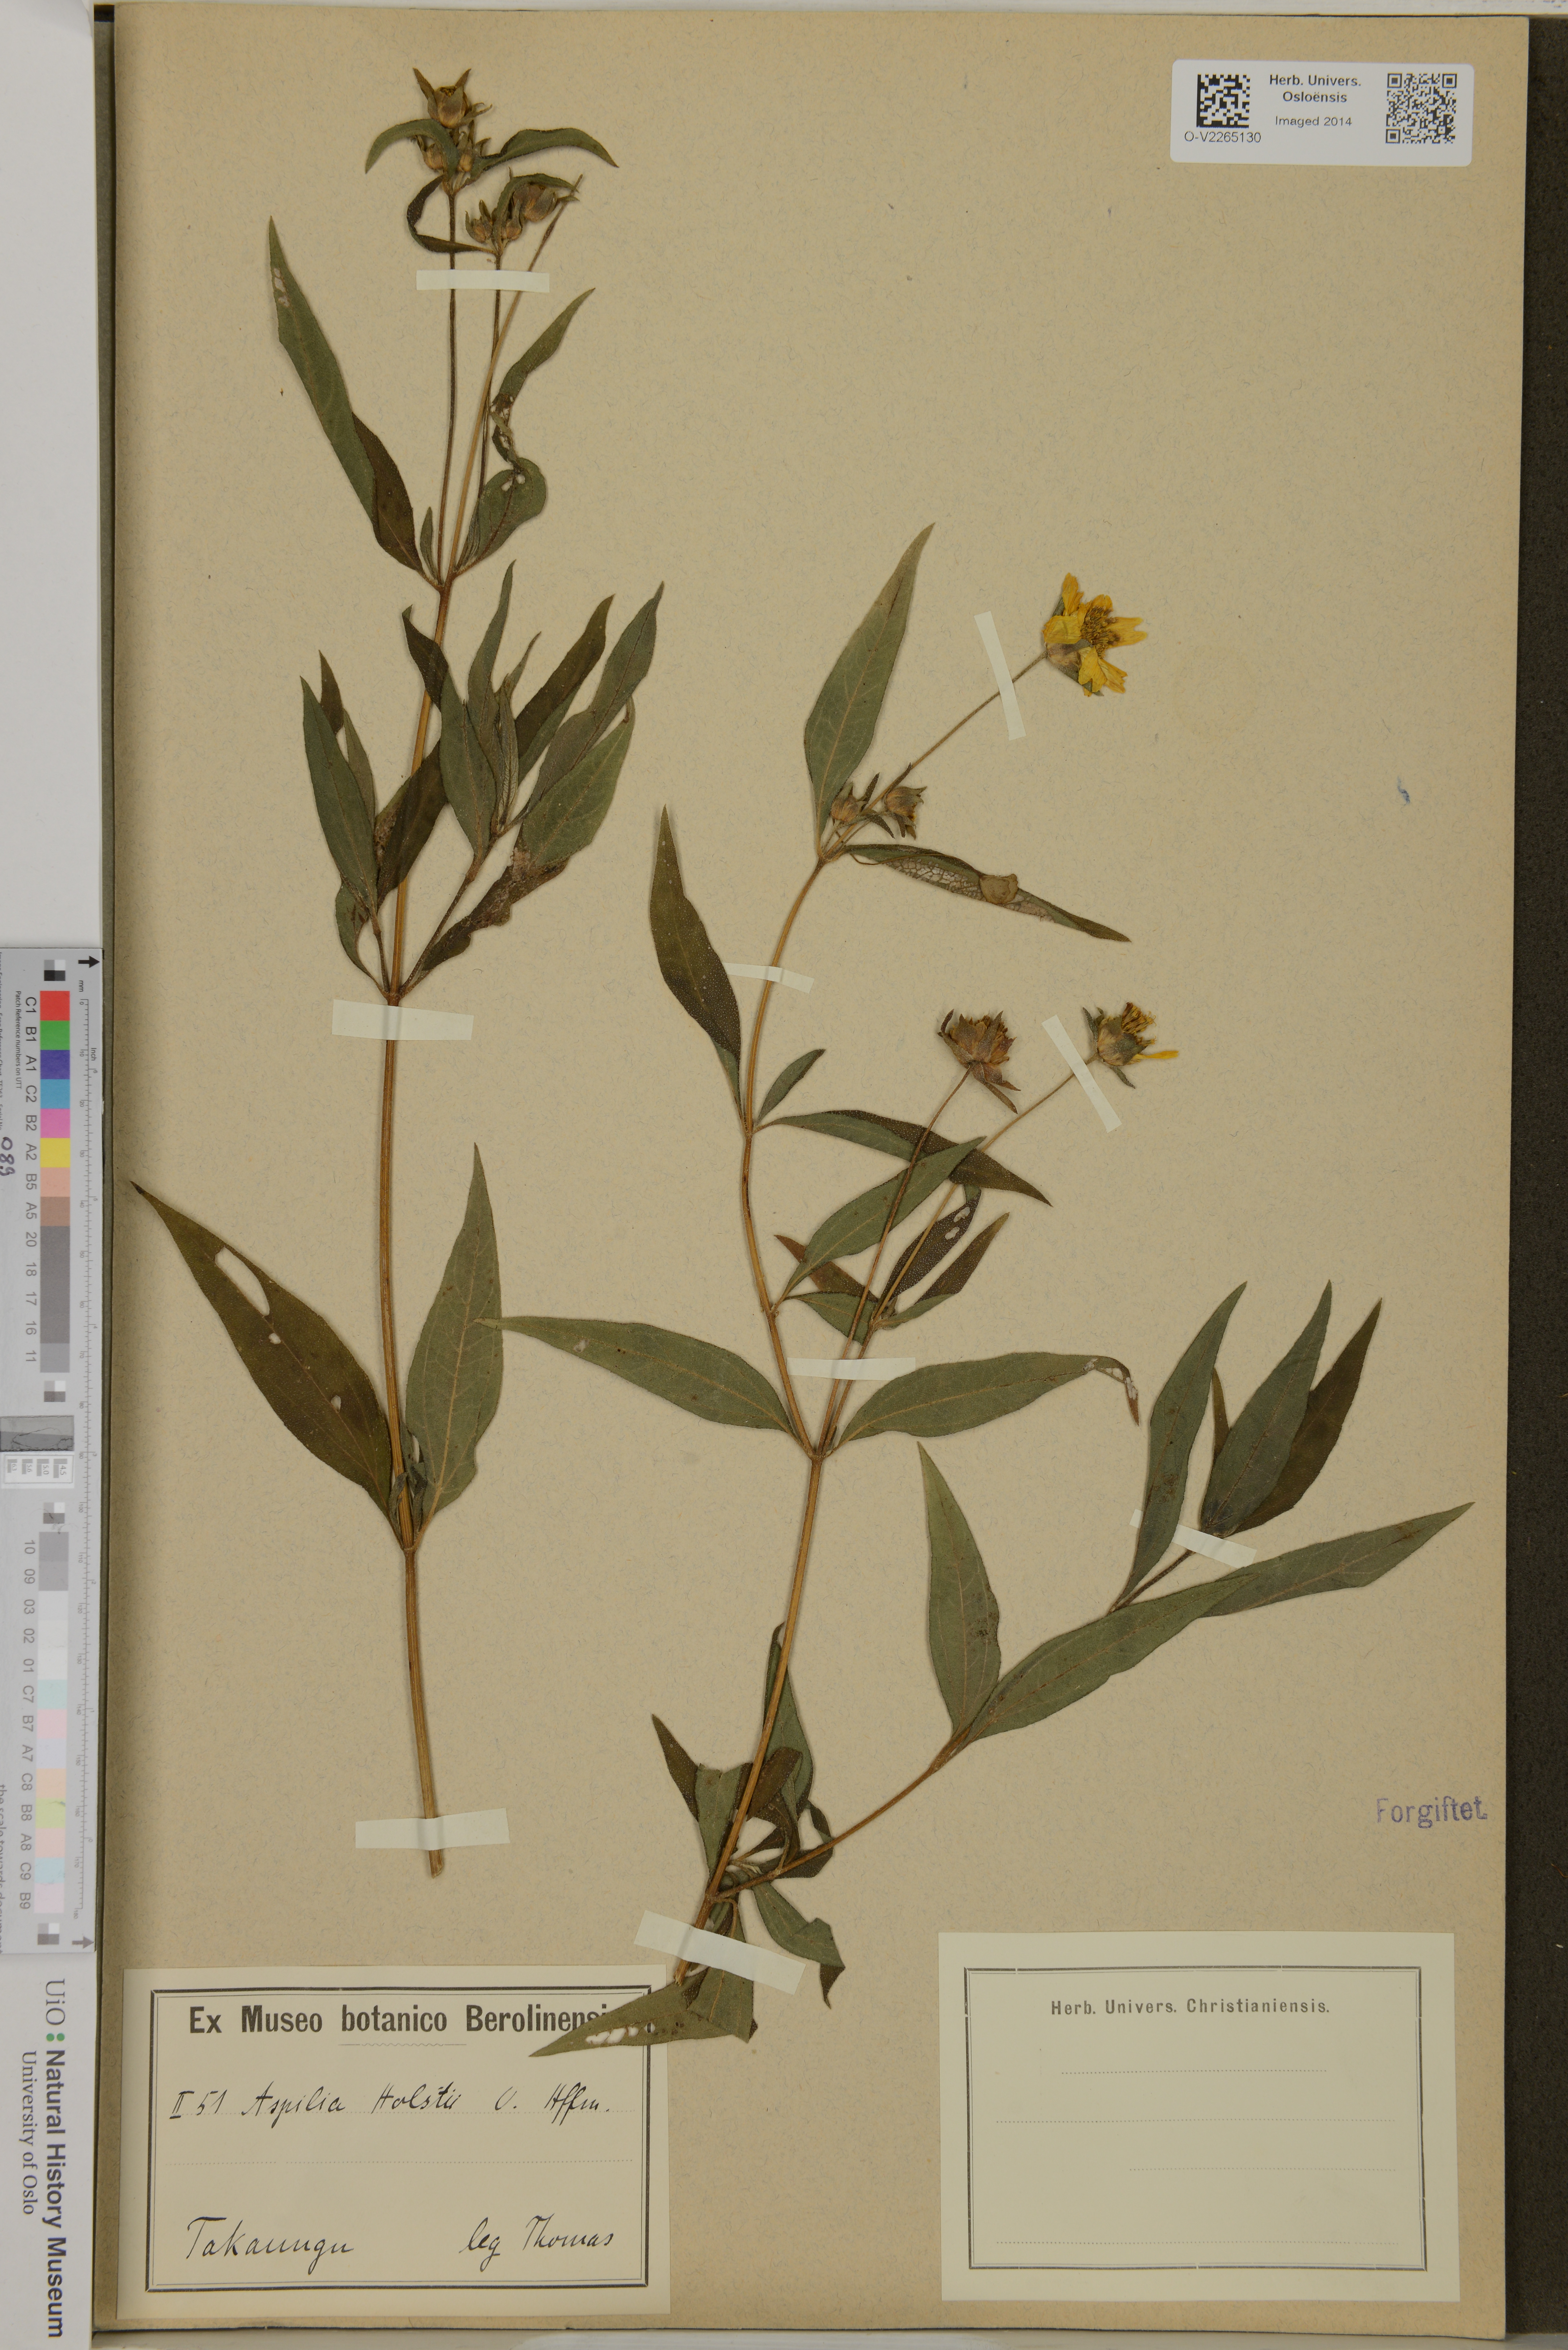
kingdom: Plantae
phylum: Tracheophyta
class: Magnoliopsida
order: Asterales
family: Asteraceae
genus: Aspilia
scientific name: Aspilia mossambicensis
